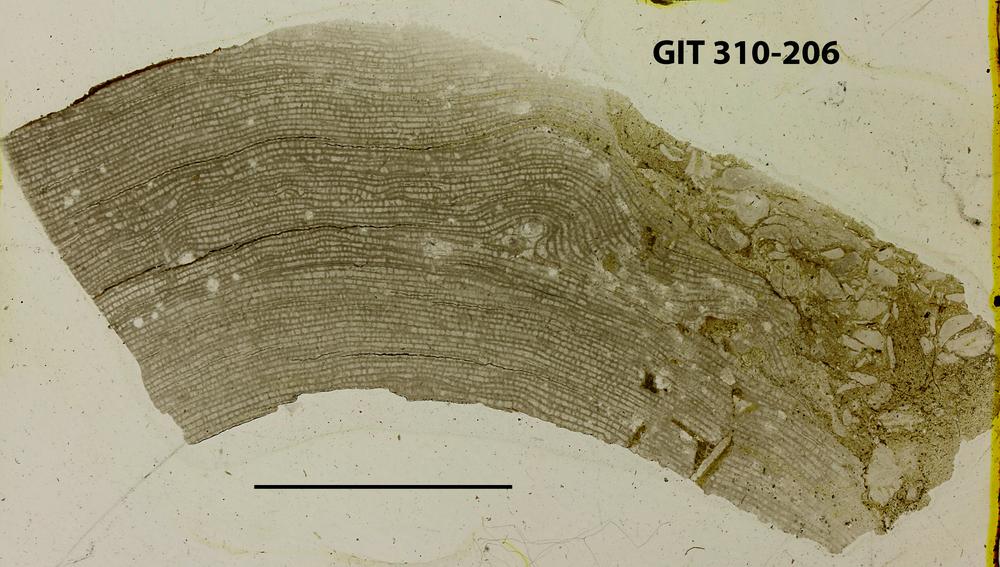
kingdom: Animalia
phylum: Porifera
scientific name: Porifera
